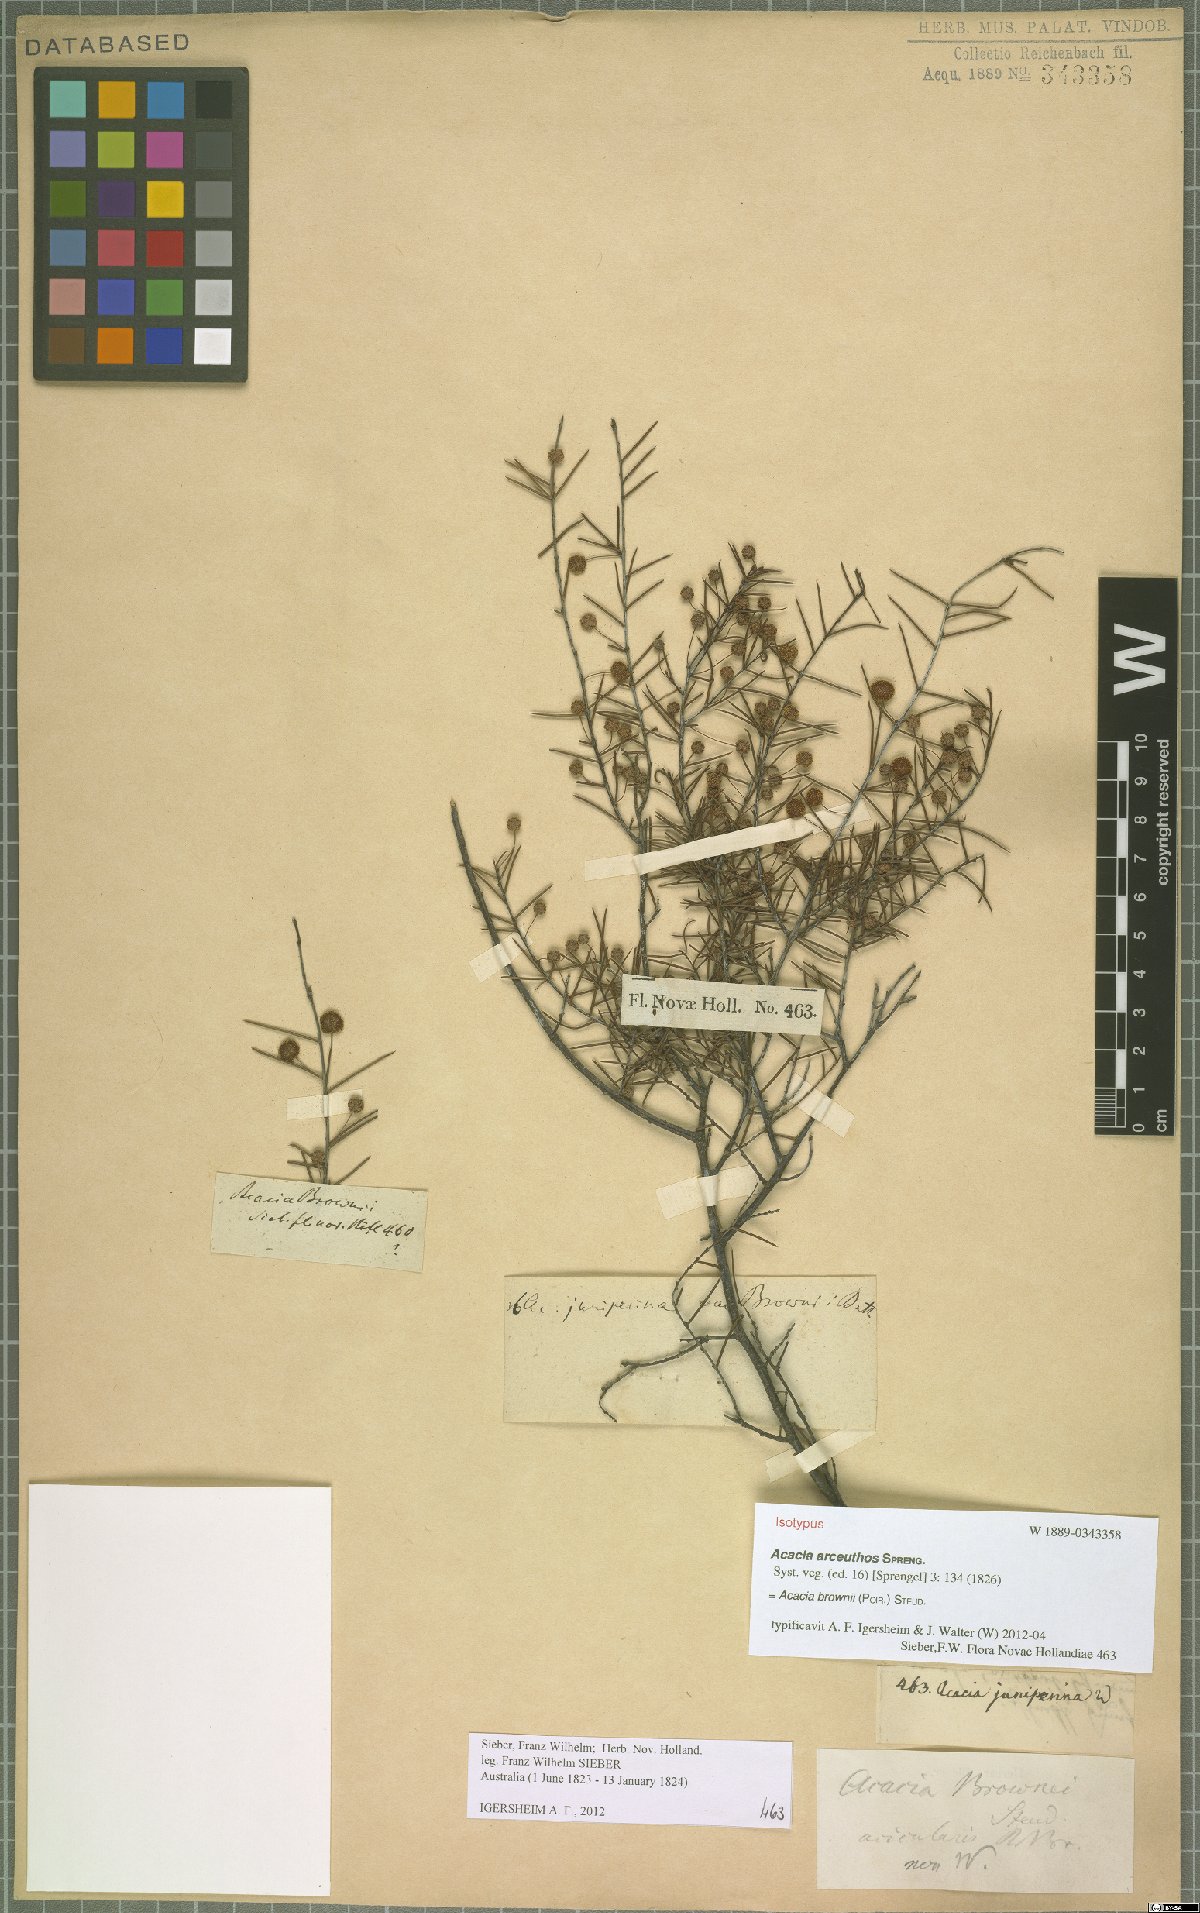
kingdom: Plantae
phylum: Tracheophyta
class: Magnoliopsida
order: Fabales
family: Fabaceae
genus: Acacia
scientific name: Acacia brownii
